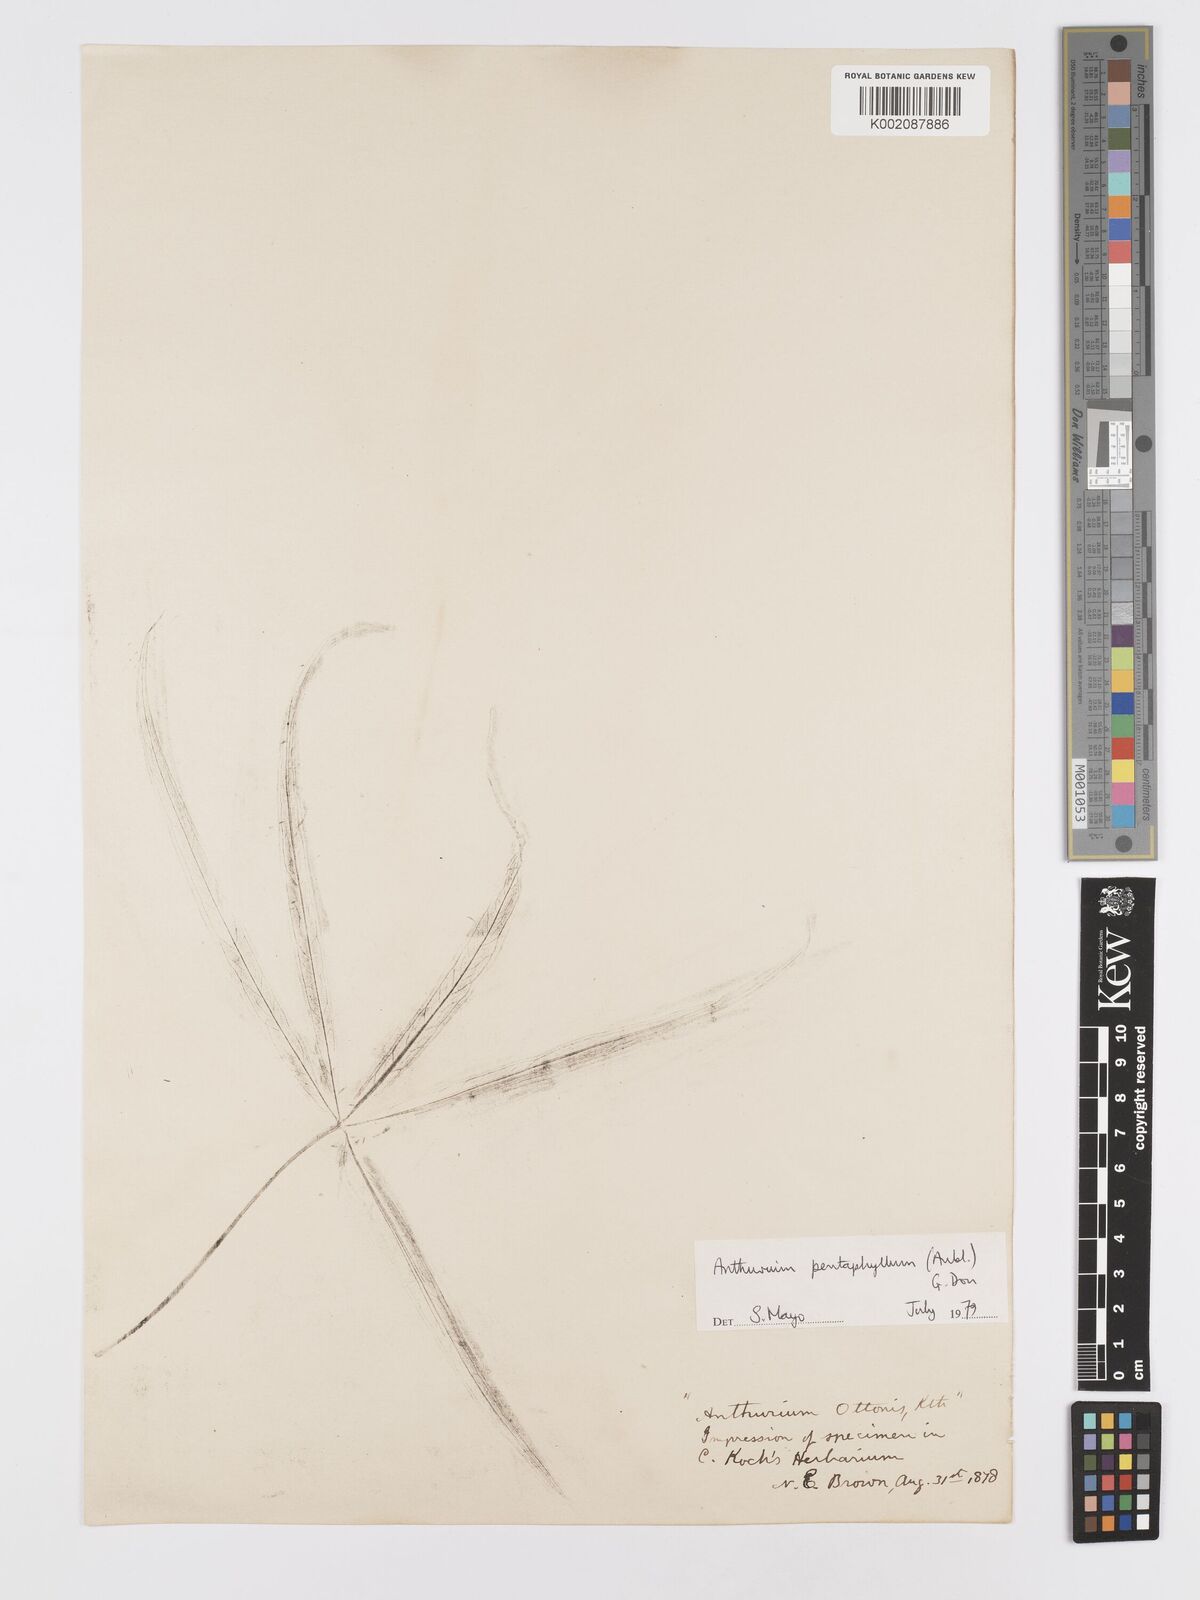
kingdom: Plantae
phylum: Tracheophyta
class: Liliopsida
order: Alismatales
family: Araceae
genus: Anthurium
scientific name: Anthurium pentaphyllum
